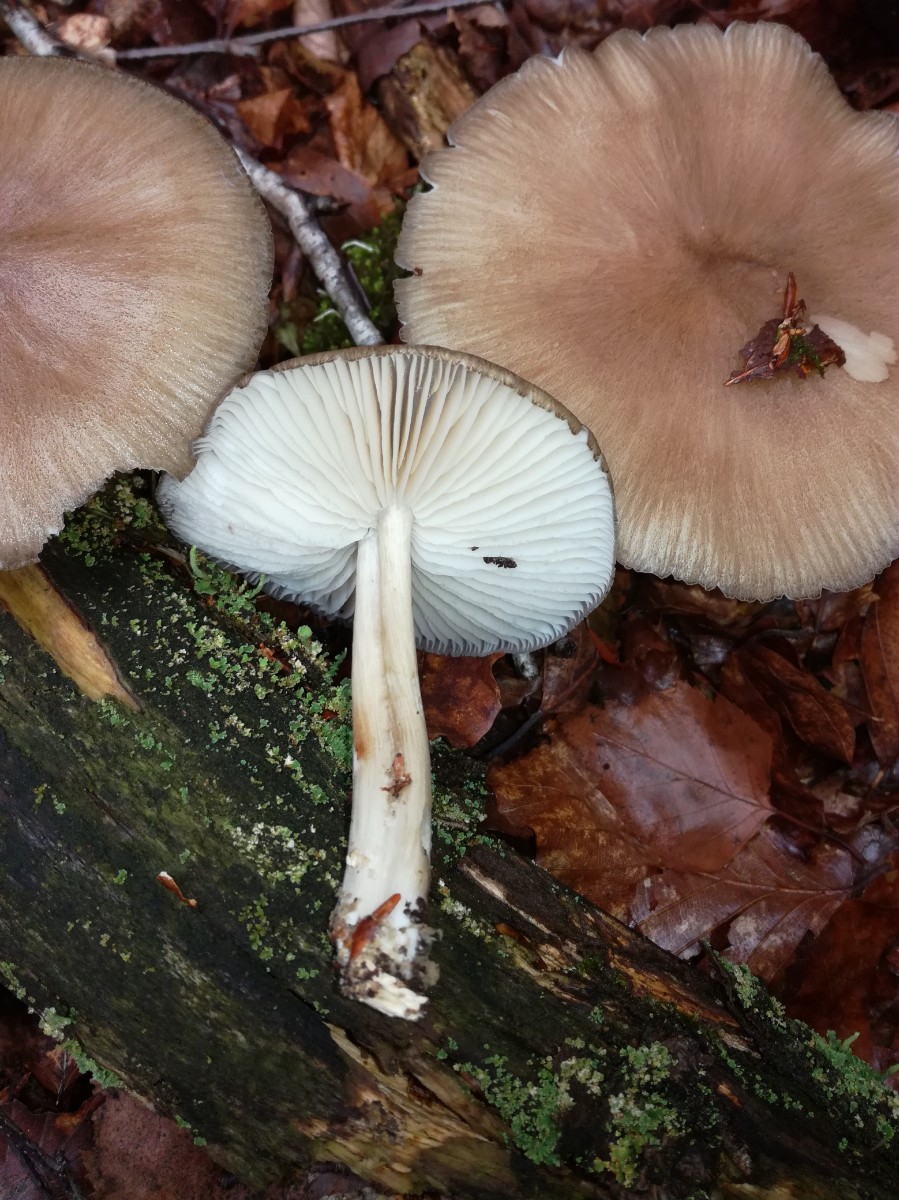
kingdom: Fungi
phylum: Basidiomycota
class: Agaricomycetes
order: Agaricales
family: Tricholomataceae
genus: Megacollybia
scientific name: Megacollybia platyphylla
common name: bredbladet væbnerhat
